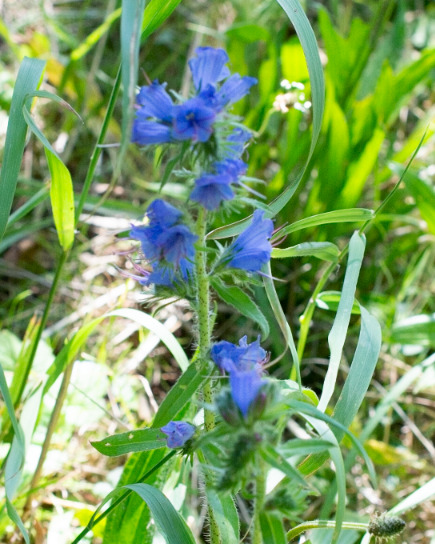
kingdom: Plantae
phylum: Tracheophyta
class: Magnoliopsida
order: Boraginales
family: Boraginaceae
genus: Echium
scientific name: Echium vulgare
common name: Slangehoved
